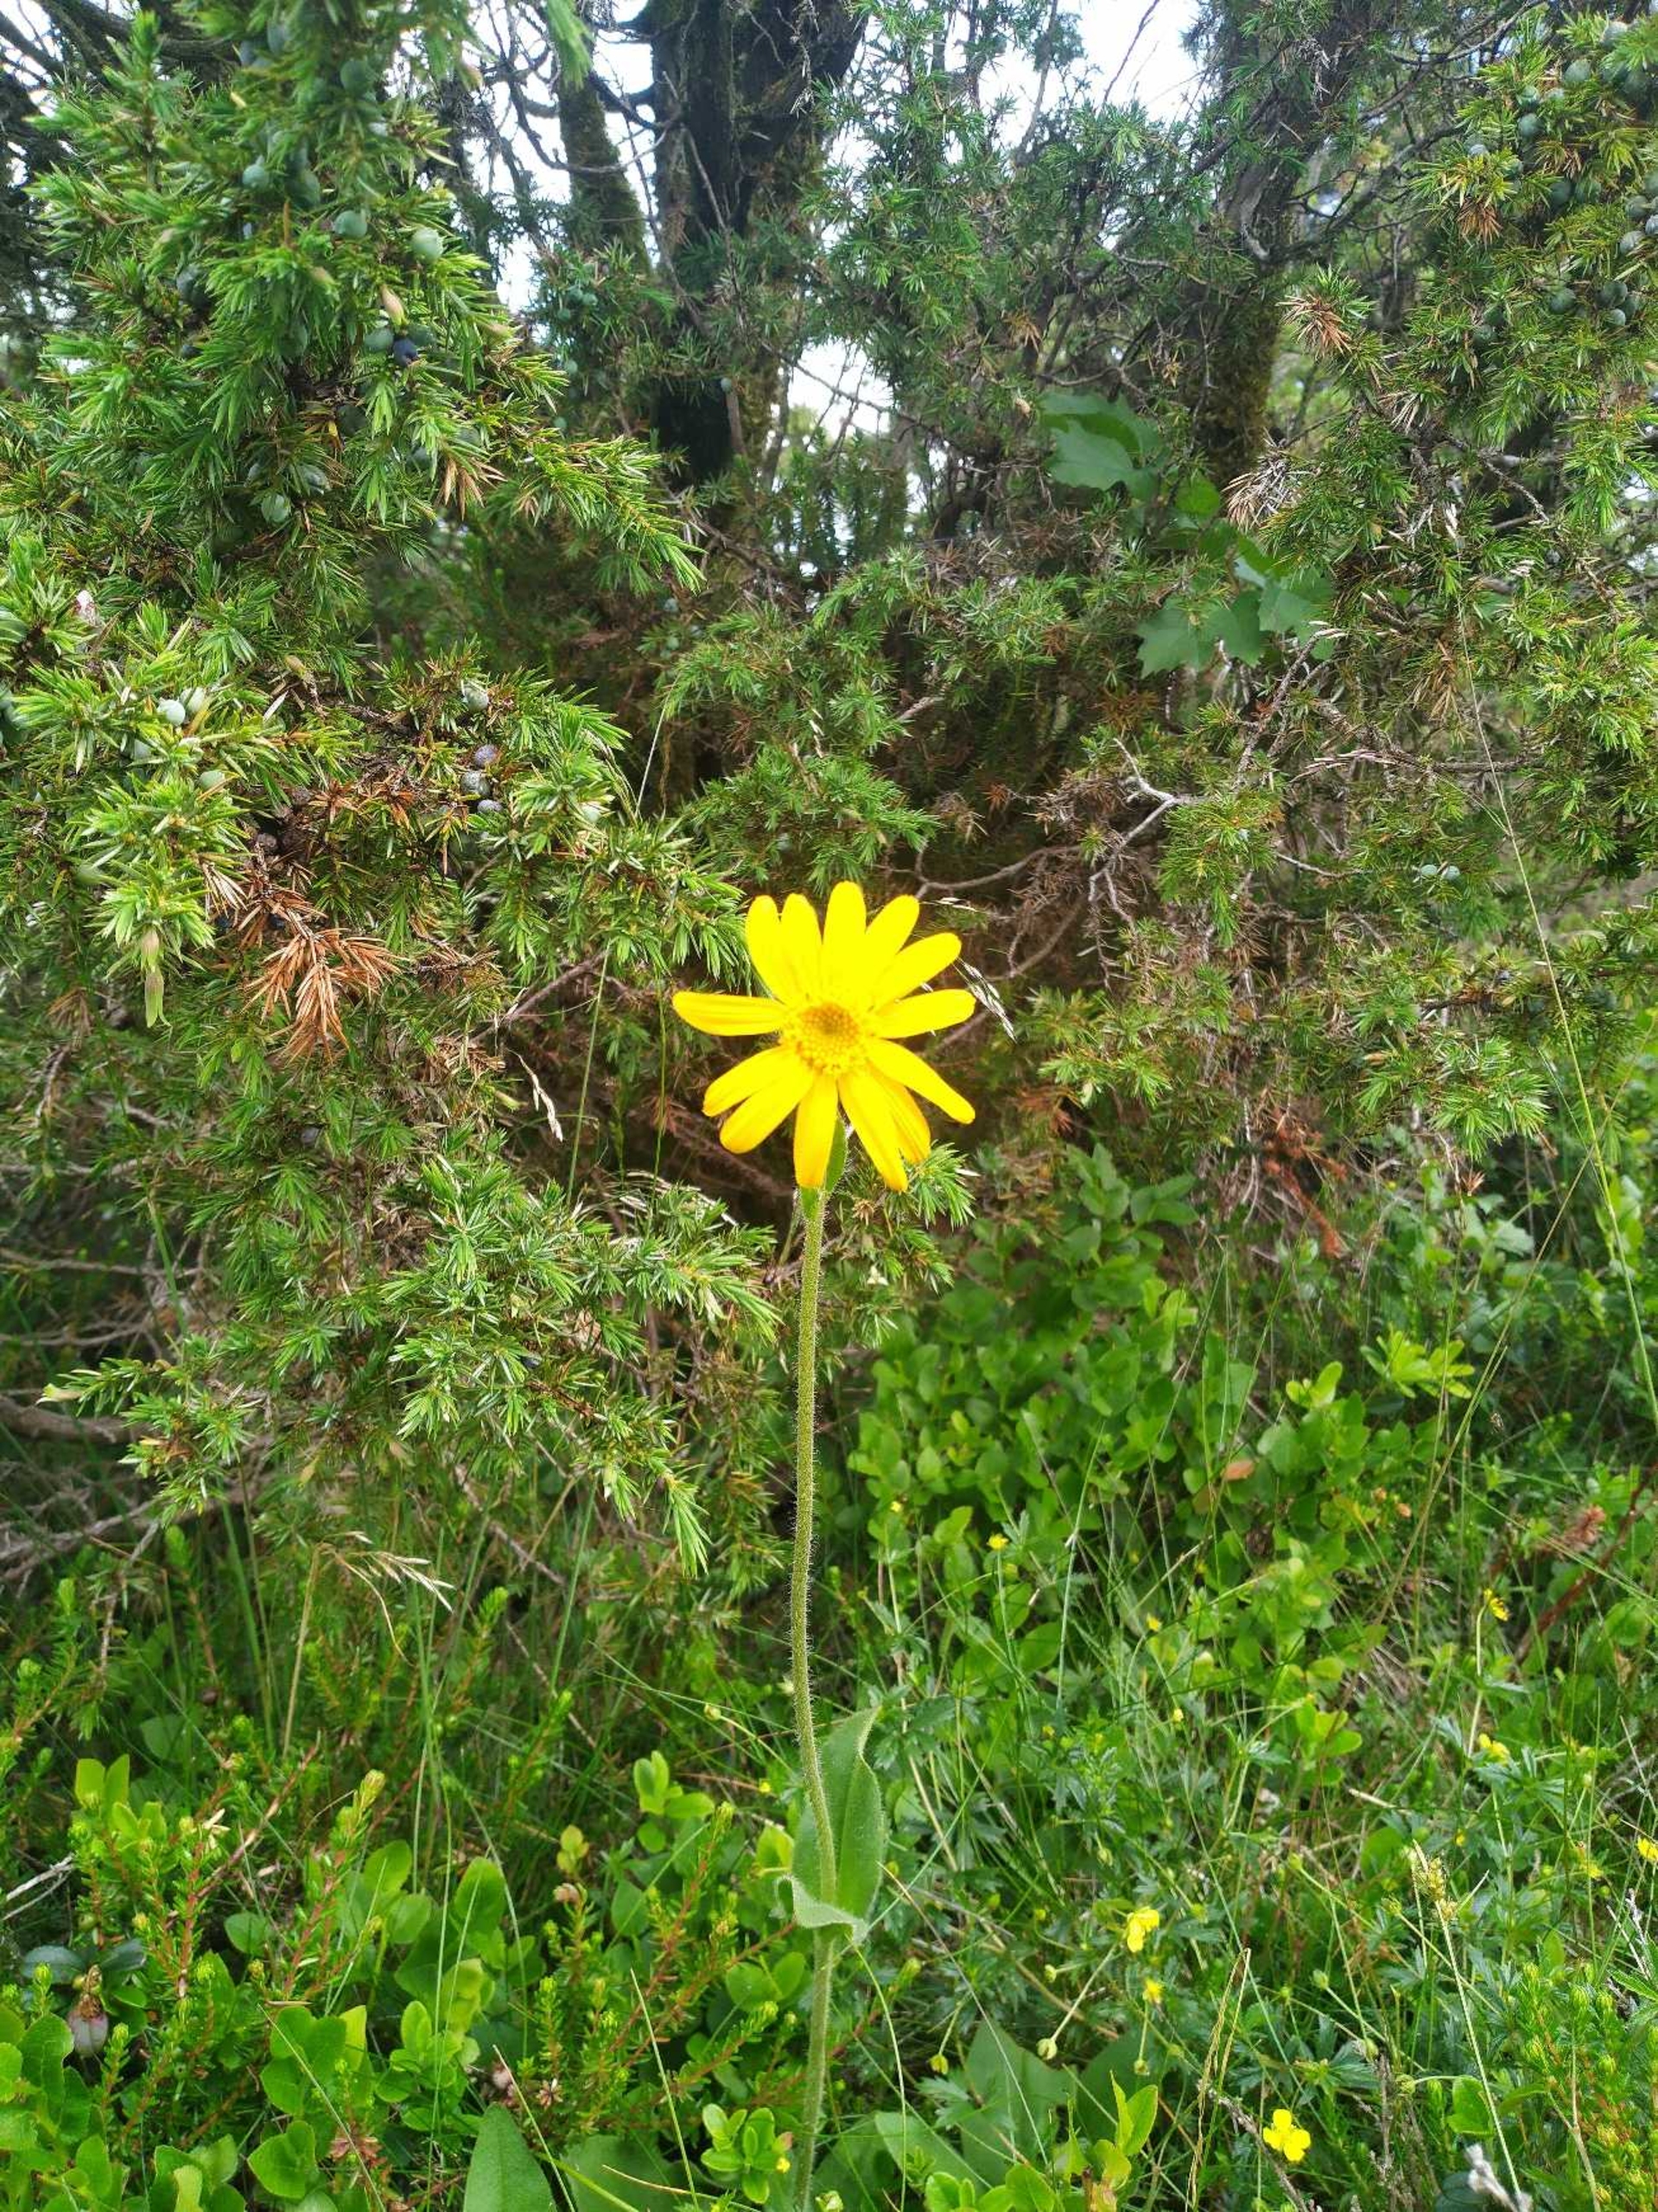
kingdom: Plantae
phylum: Tracheophyta
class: Magnoliopsida
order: Asterales
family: Asteraceae
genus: Arnica
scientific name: Arnica montana
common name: Guldblomme
